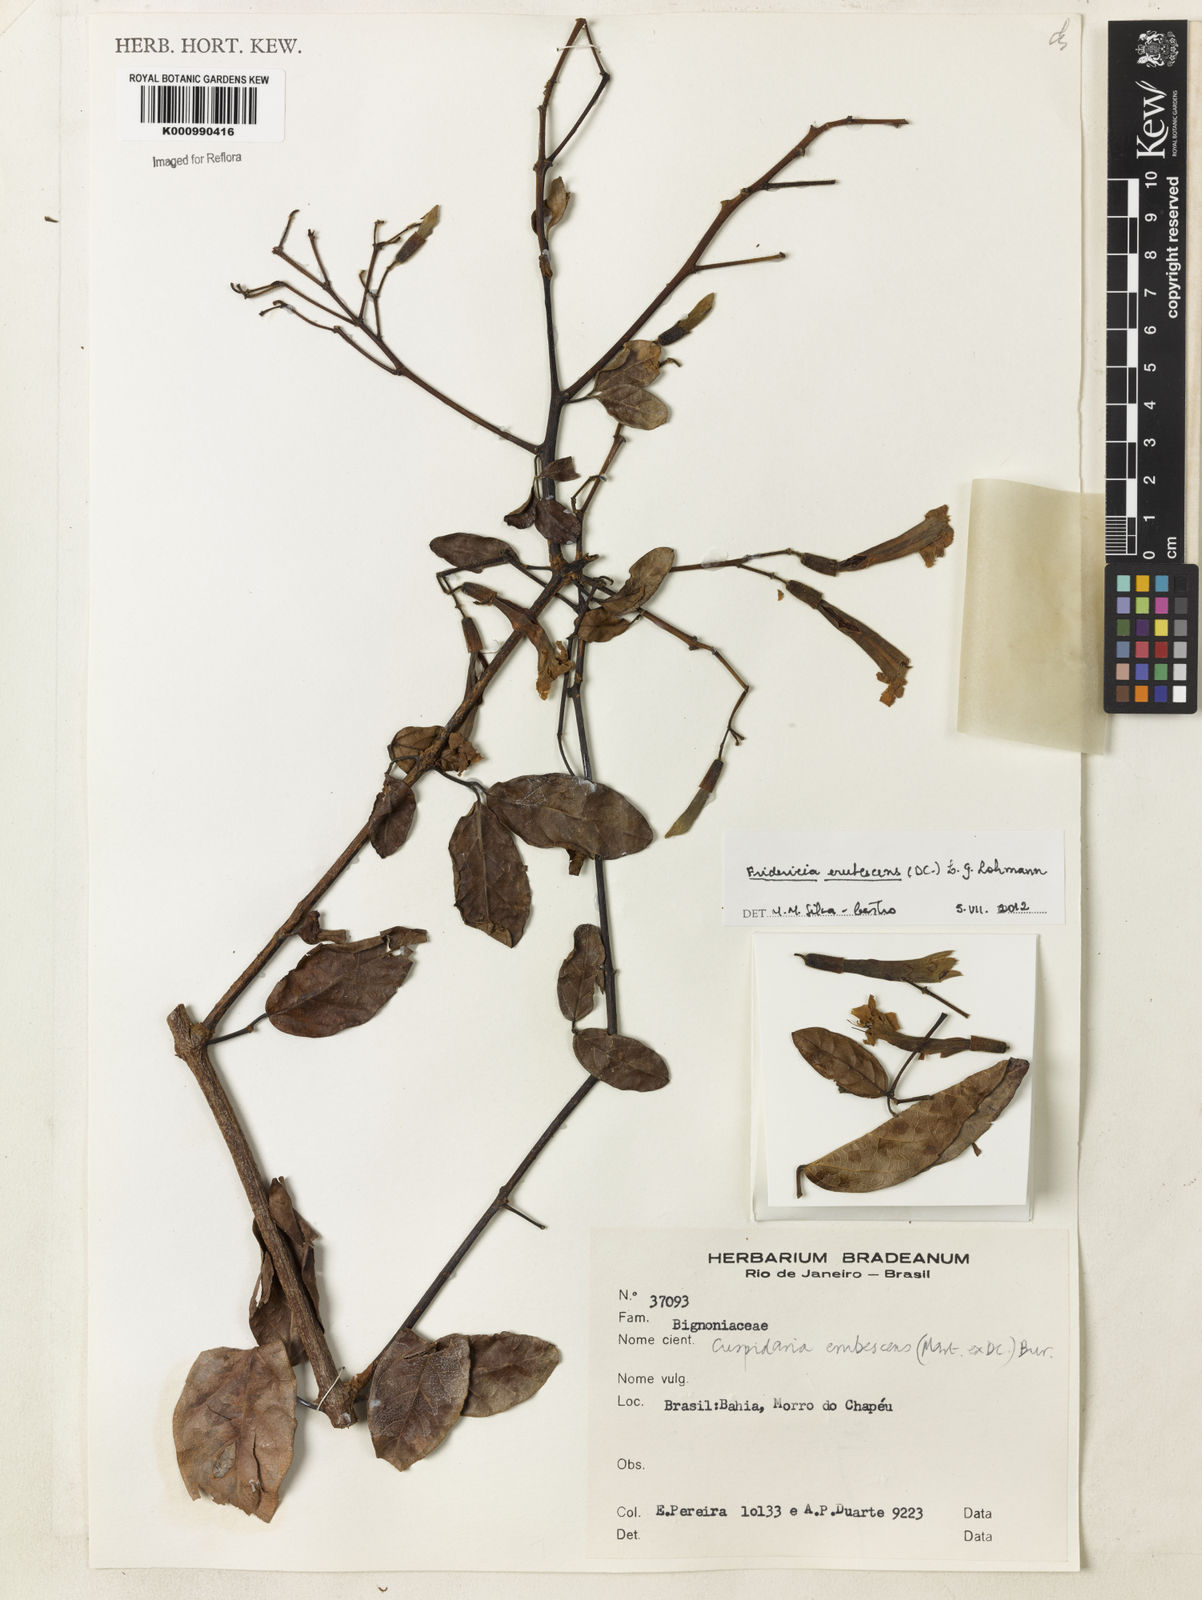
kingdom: Plantae
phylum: Tracheophyta
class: Magnoliopsida
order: Lamiales
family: Bignoniaceae
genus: Fridericia
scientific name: Fridericia erubescens
